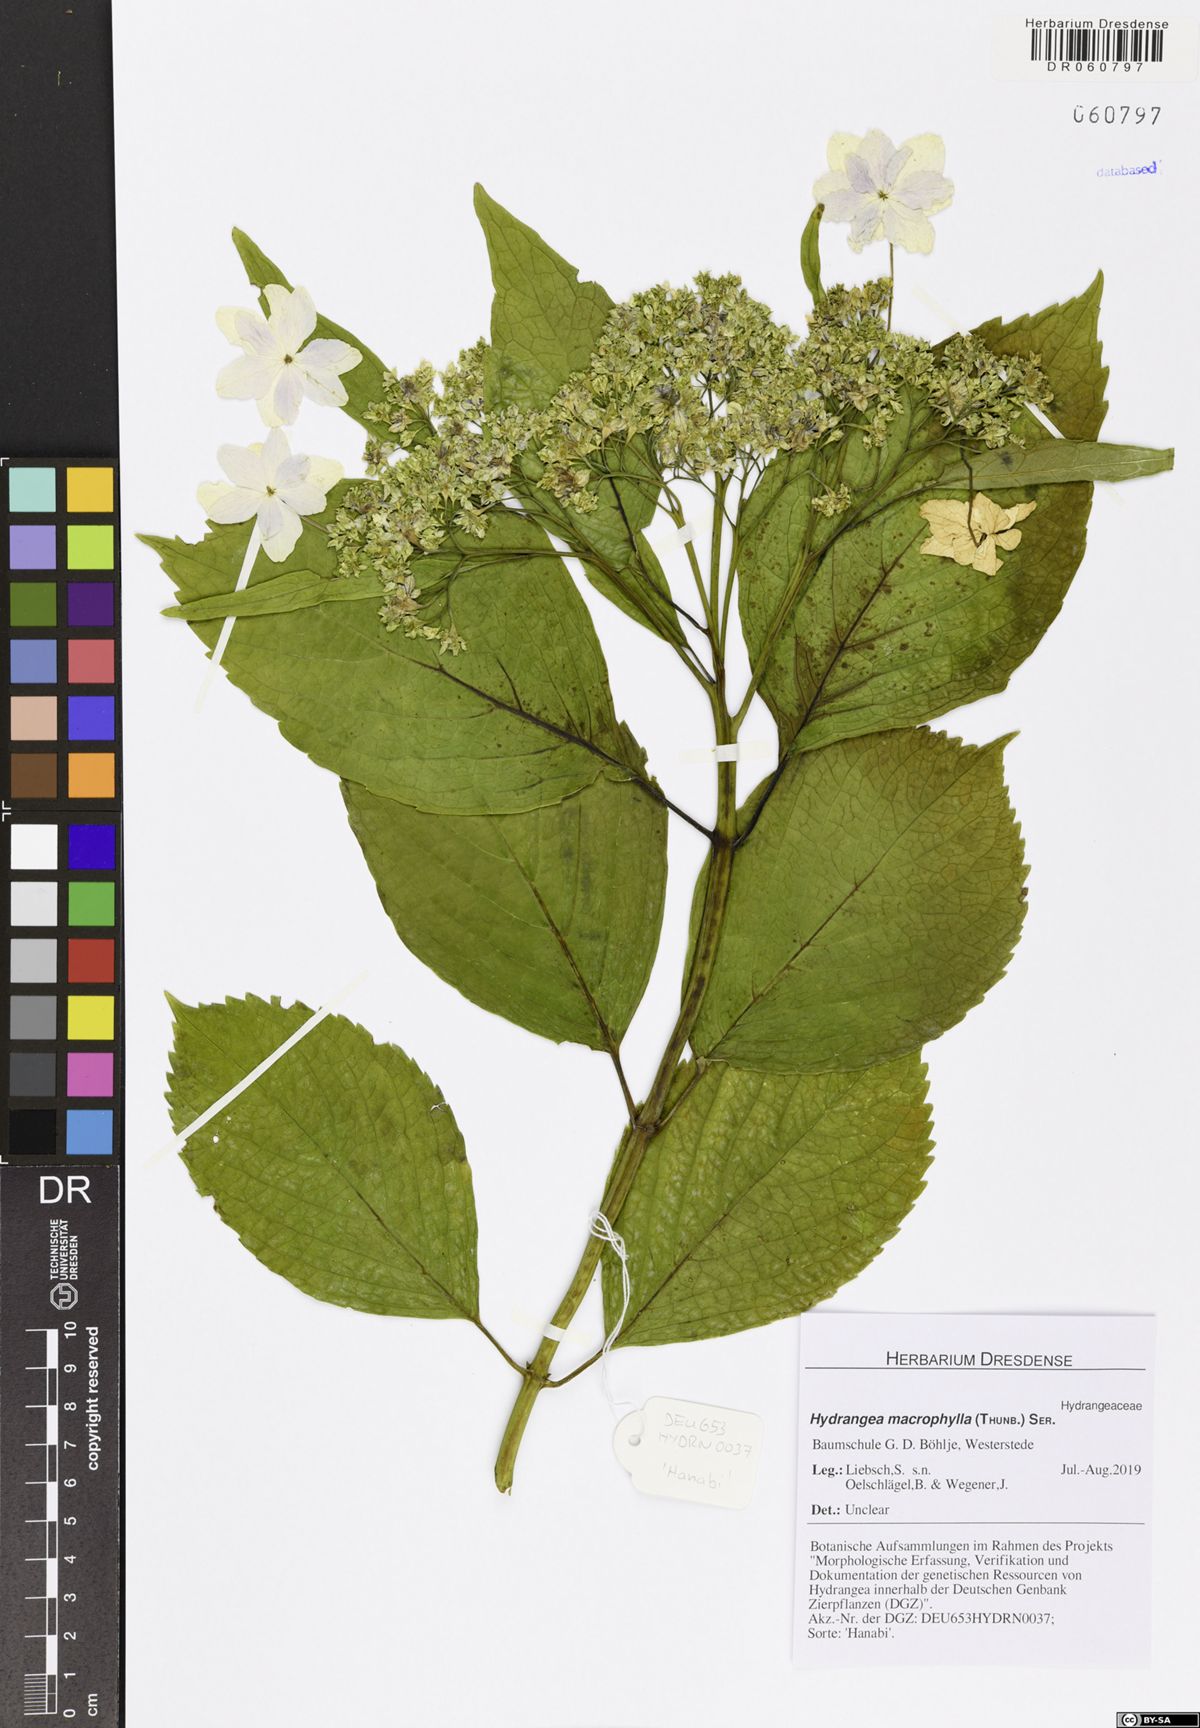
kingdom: Plantae
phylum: Tracheophyta
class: Magnoliopsida
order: Cornales
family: Hydrangeaceae
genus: Hydrangea
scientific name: Hydrangea macrophylla
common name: Hydrangea
